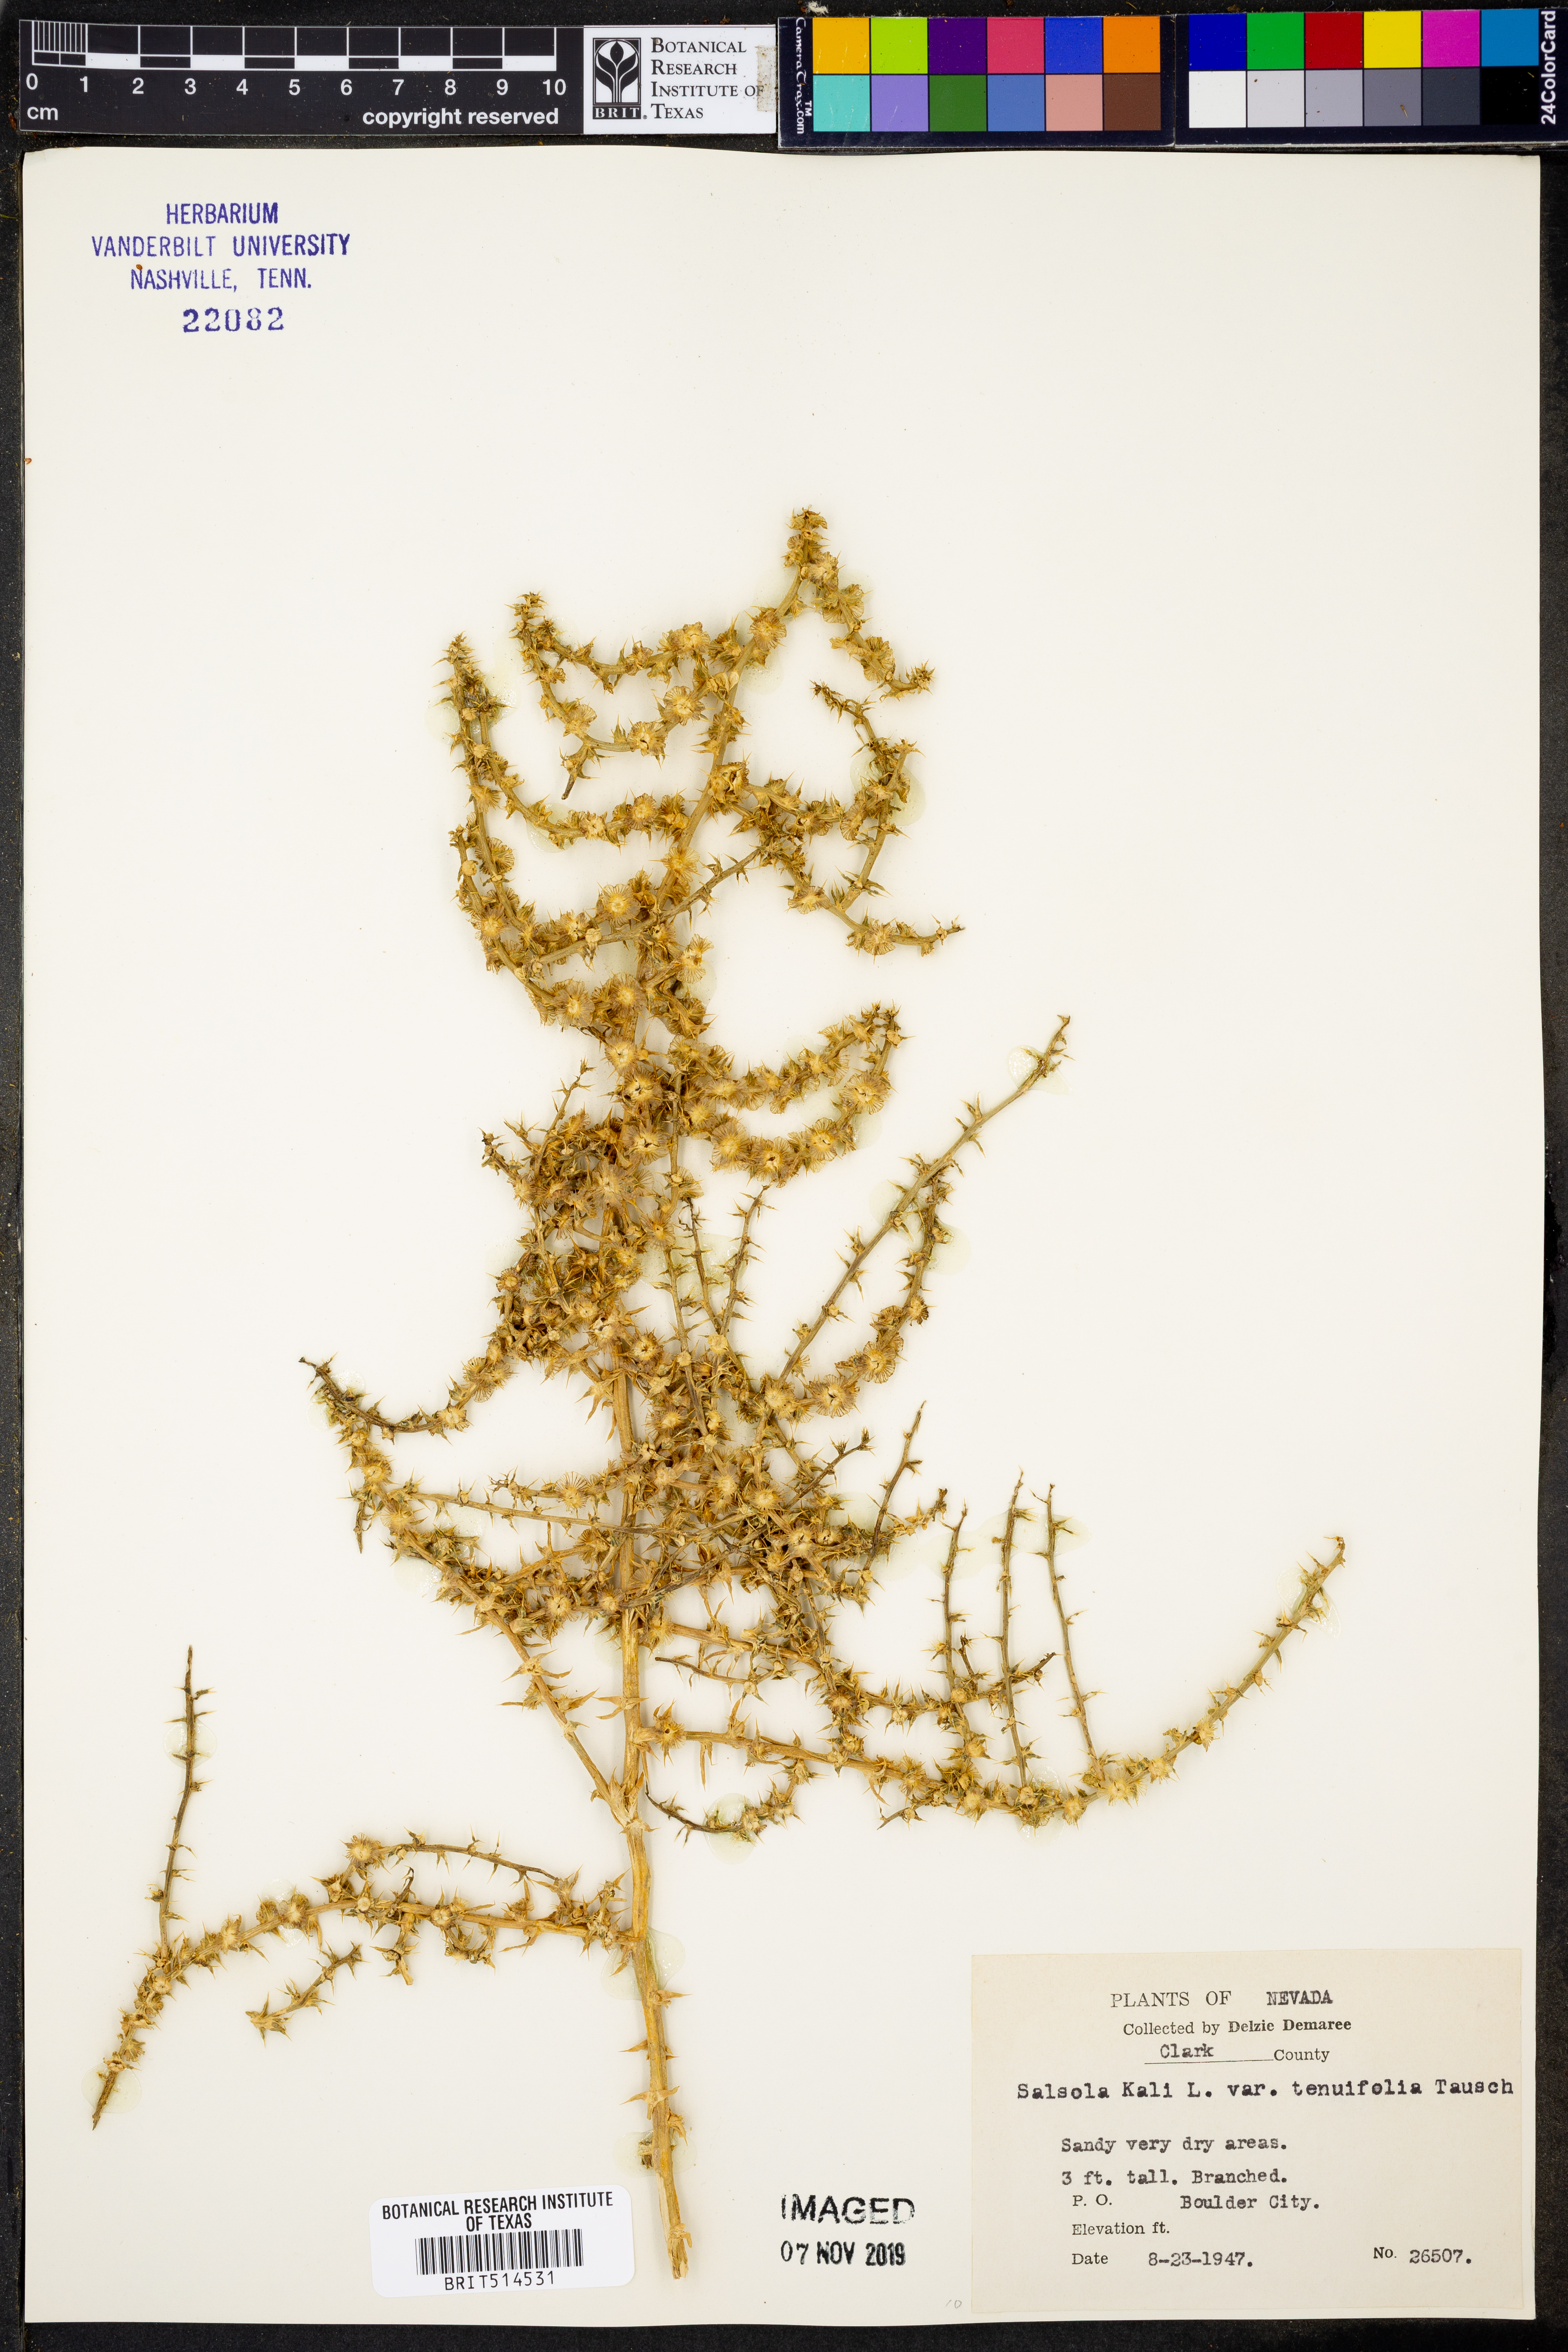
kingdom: Plantae
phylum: Tracheophyta
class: Magnoliopsida
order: Caryophyllales
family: Amaranthaceae
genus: Salsola
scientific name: Salsola tragus
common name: Prickly russian thistle
